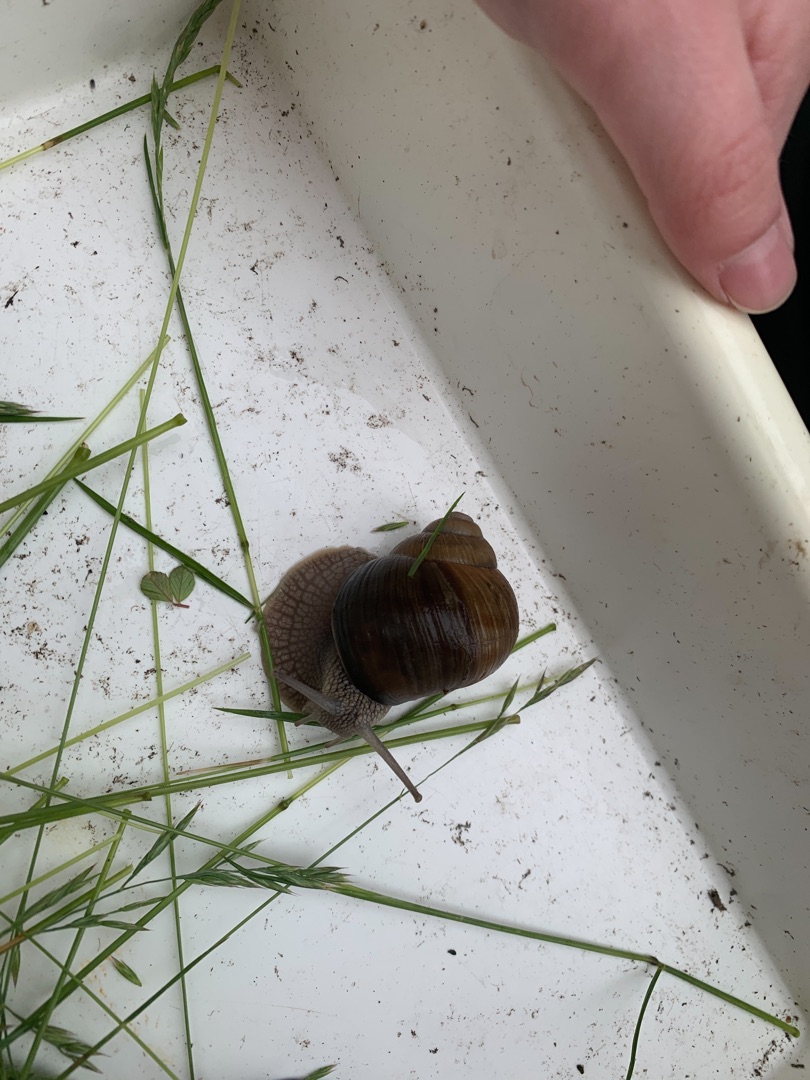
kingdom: Animalia
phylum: Mollusca
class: Gastropoda
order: Stylommatophora
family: Helicidae
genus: Helix
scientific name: Helix pomatia
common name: Vinbjergsnegl
